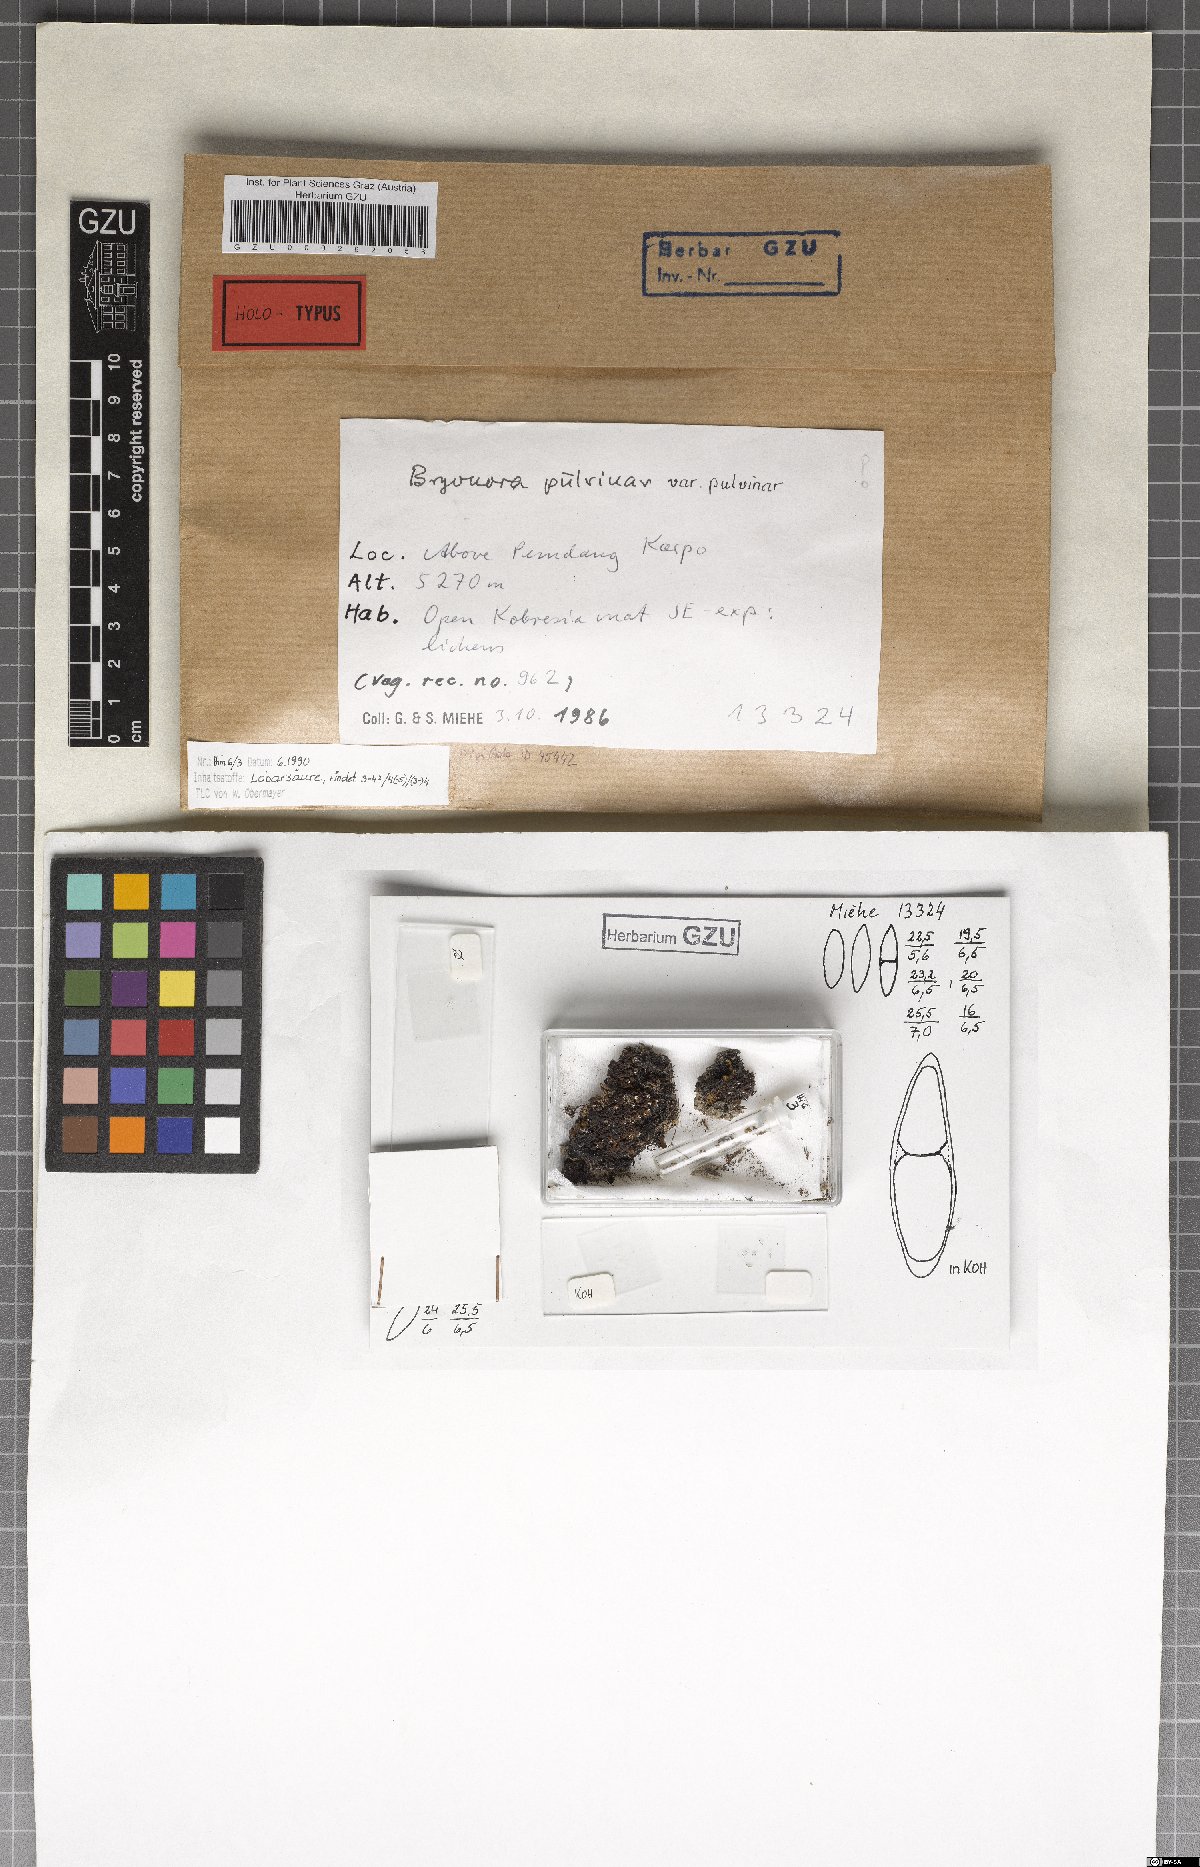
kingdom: Fungi
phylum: Ascomycota
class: Lecanoromycetes
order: Lecanorales
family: Lecanoraceae
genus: Bryonora
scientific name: Bryonora pulvinar
